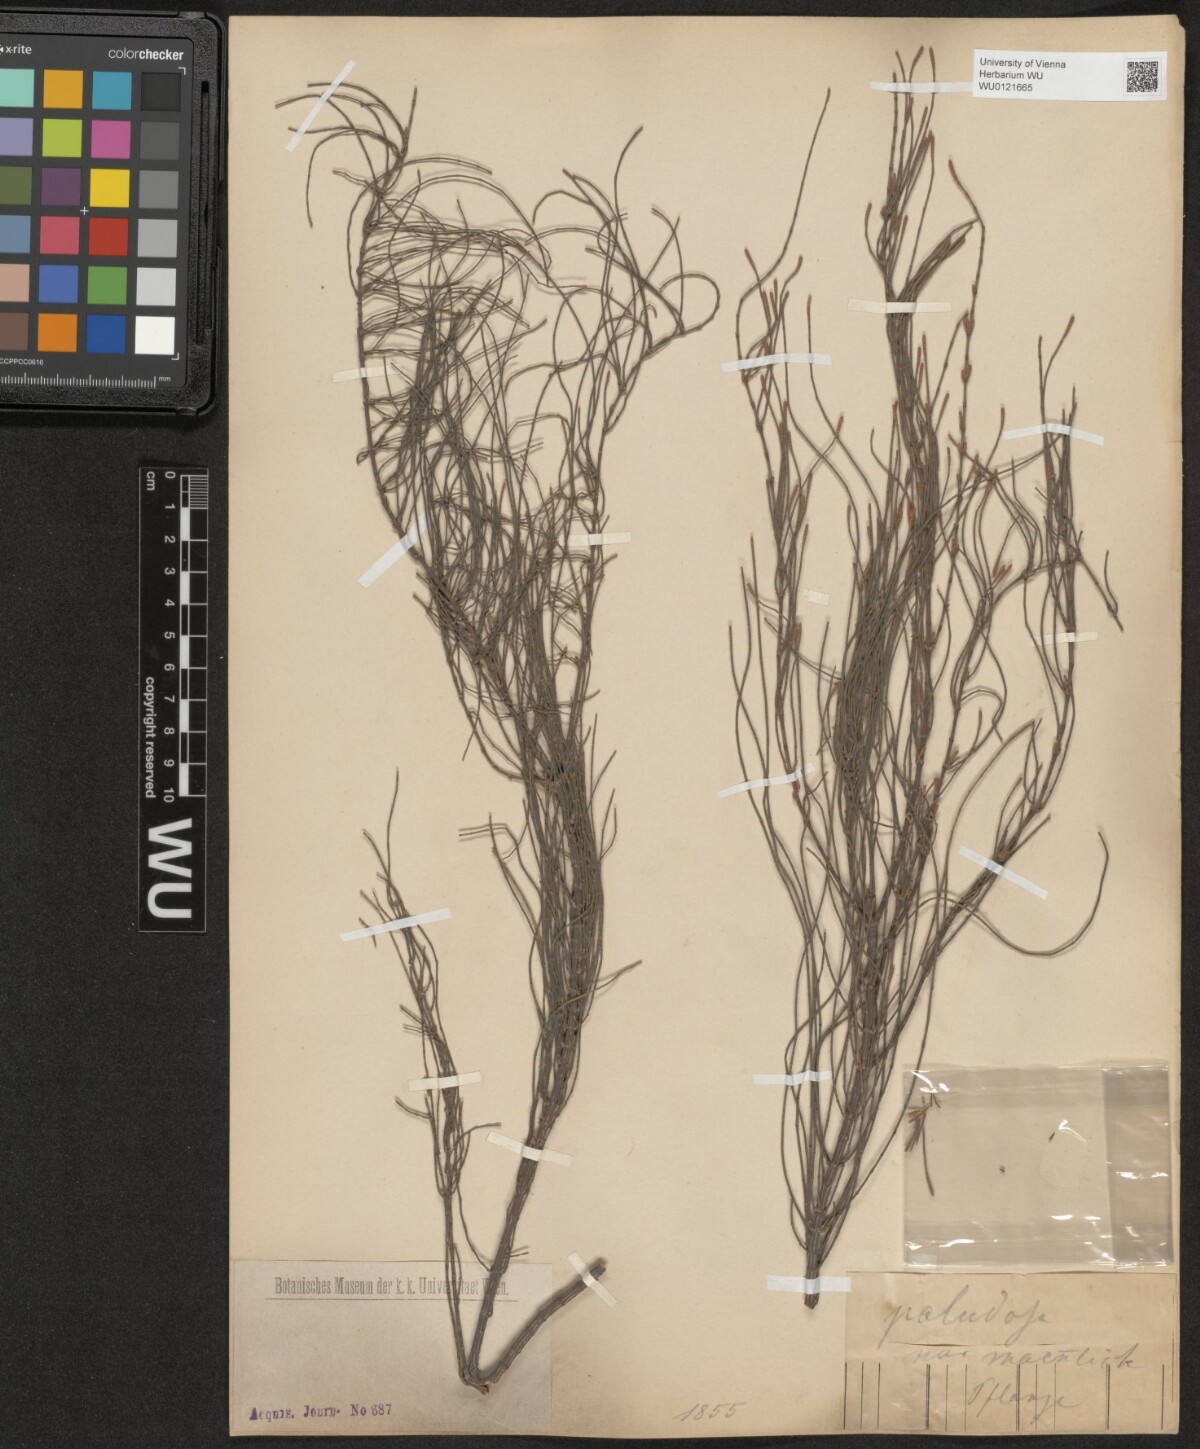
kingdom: Plantae
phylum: Tracheophyta
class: Magnoliopsida
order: Fagales
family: Casuarinaceae
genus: Allocasuarina
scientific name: Allocasuarina paludosa
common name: Scrub she-oak
